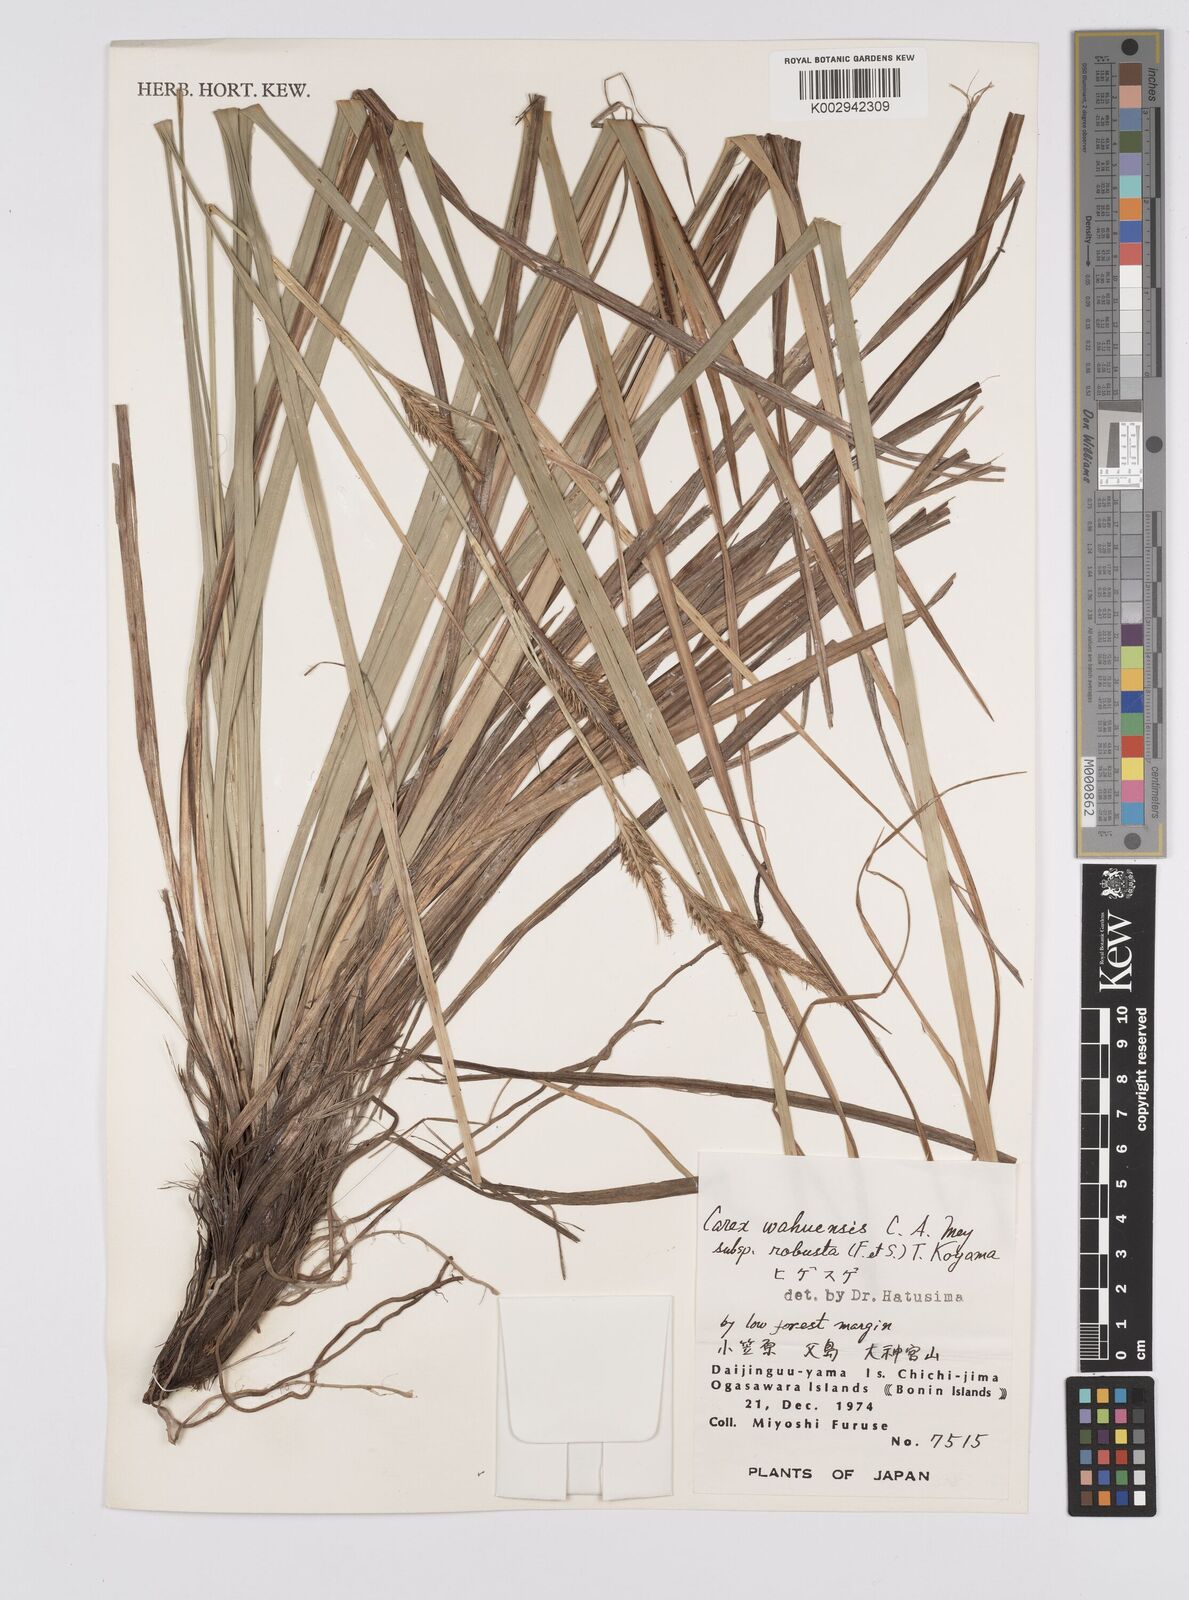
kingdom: Plantae
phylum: Tracheophyta
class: Liliopsida
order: Poales
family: Cyperaceae
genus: Carex
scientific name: Carex wahuensis
